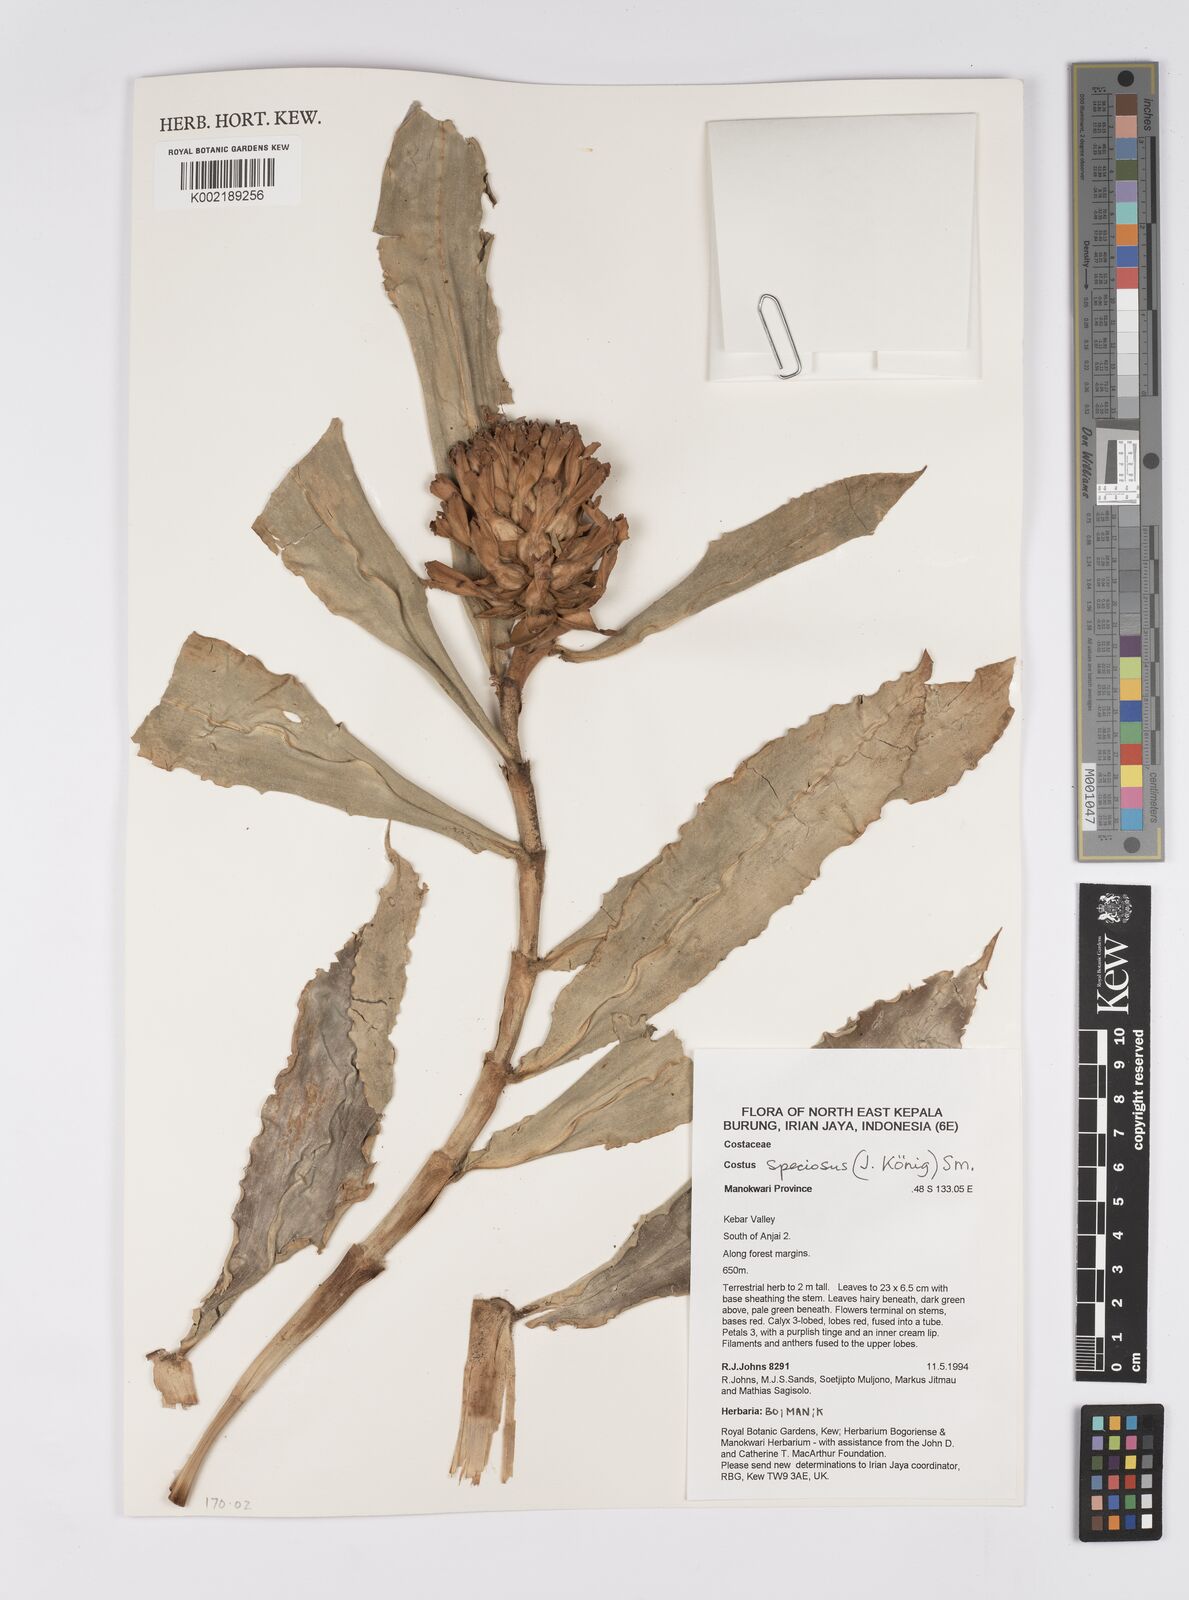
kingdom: Plantae
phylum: Tracheophyta
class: Liliopsida
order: Zingiberales
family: Costaceae
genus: Hellenia
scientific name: Hellenia speciosa
